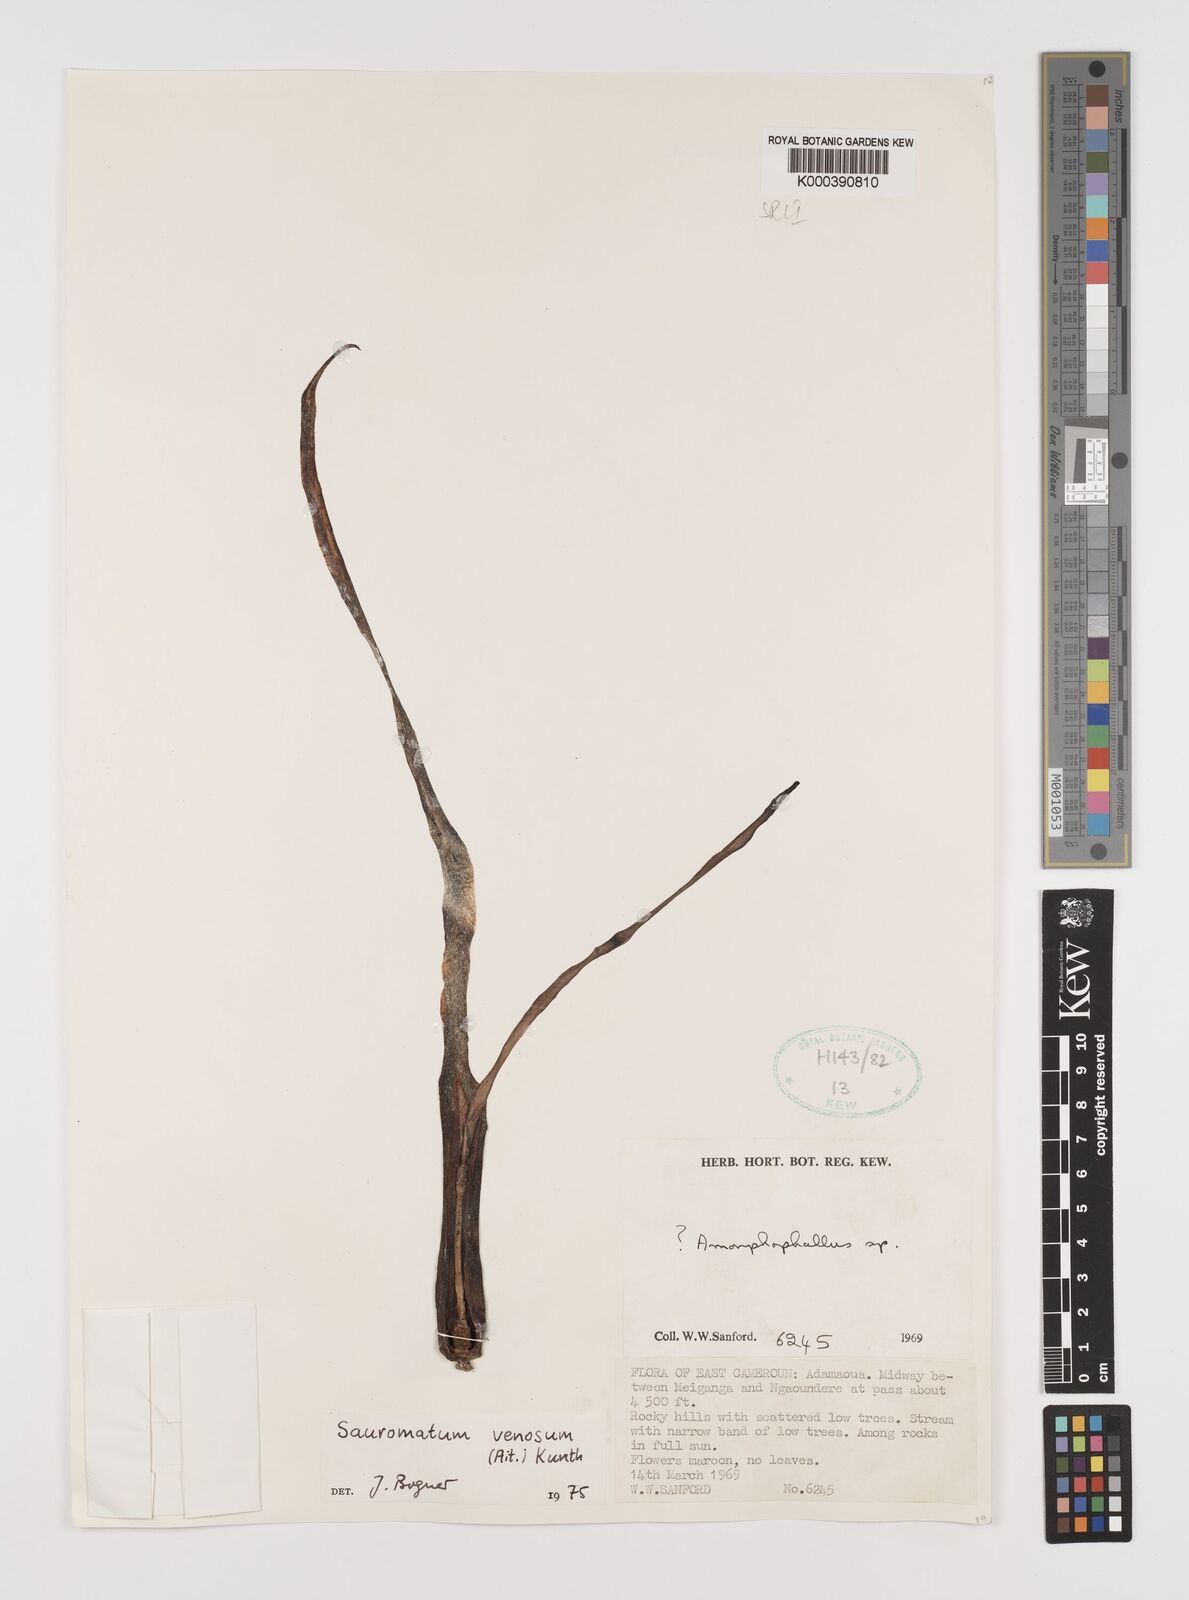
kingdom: Plantae
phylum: Tracheophyta
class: Liliopsida
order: Alismatales
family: Araceae
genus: Sauromatum
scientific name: Sauromatum venosum
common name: Voodoo lily
